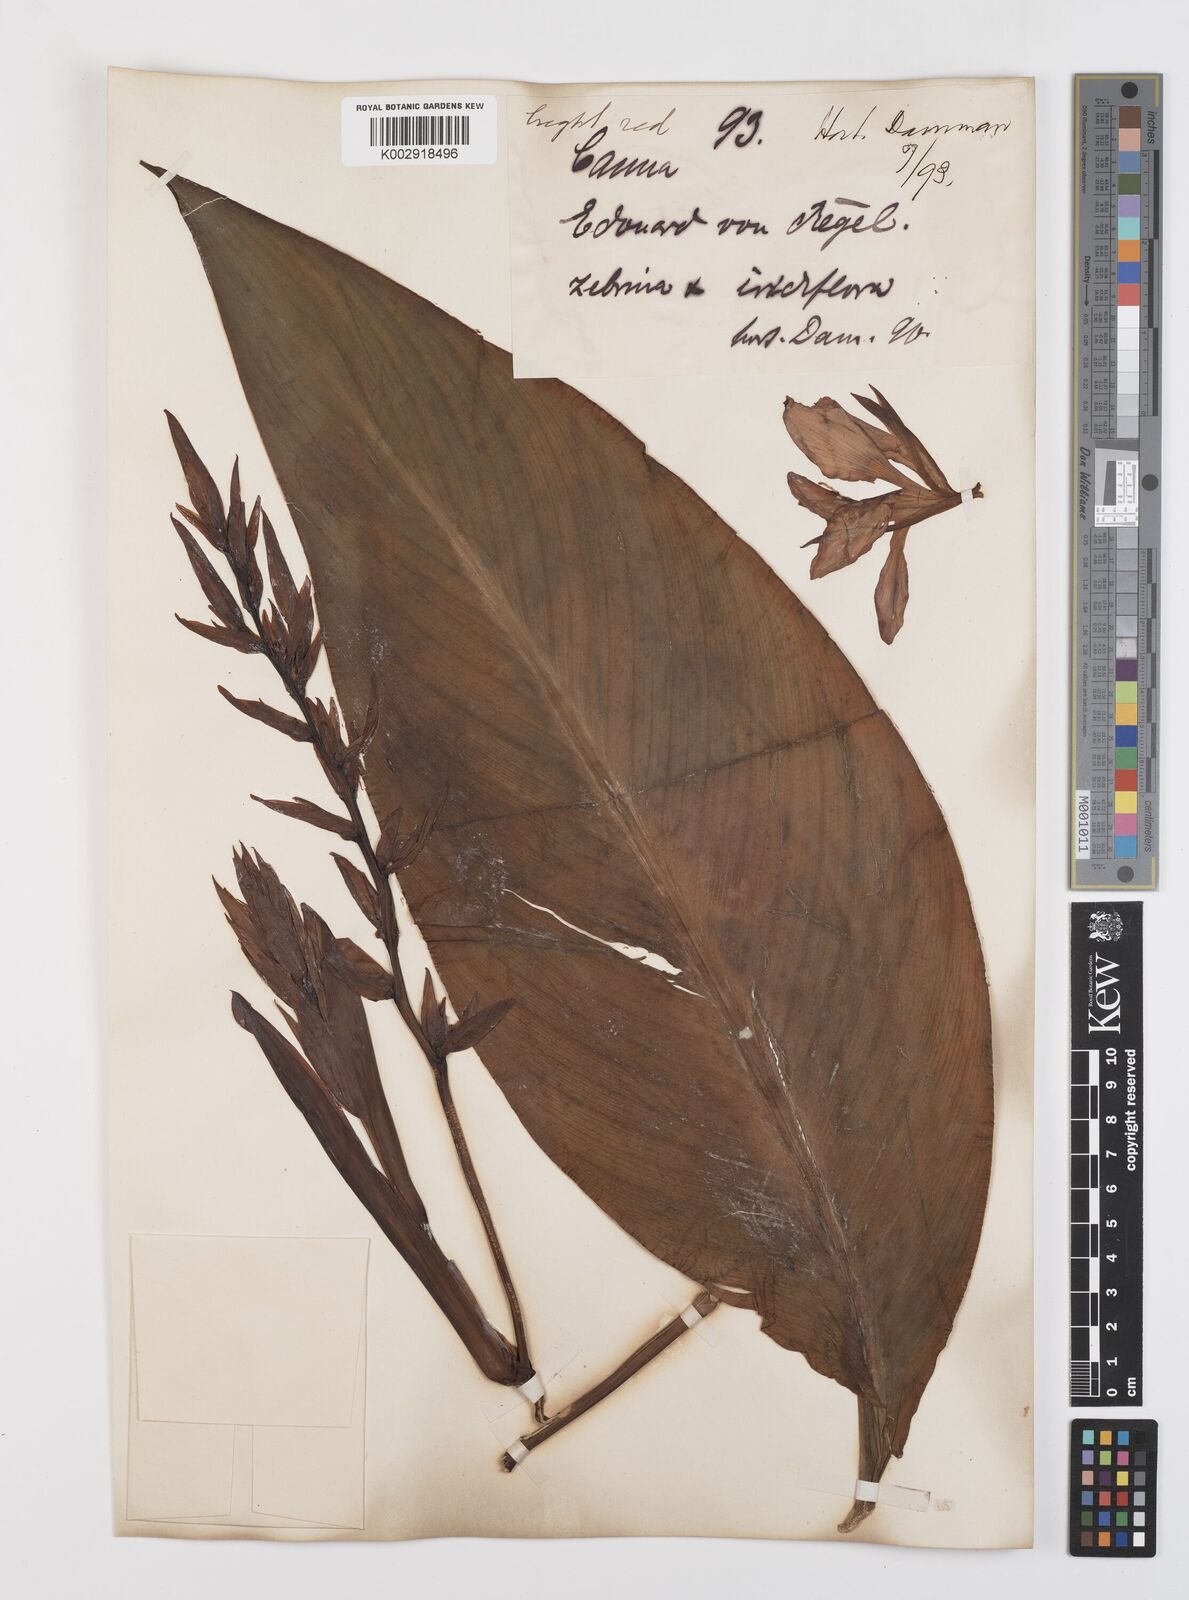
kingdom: Plantae
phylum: Tracheophyta
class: Liliopsida
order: Zingiberales
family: Cannaceae
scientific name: Cannaceae
